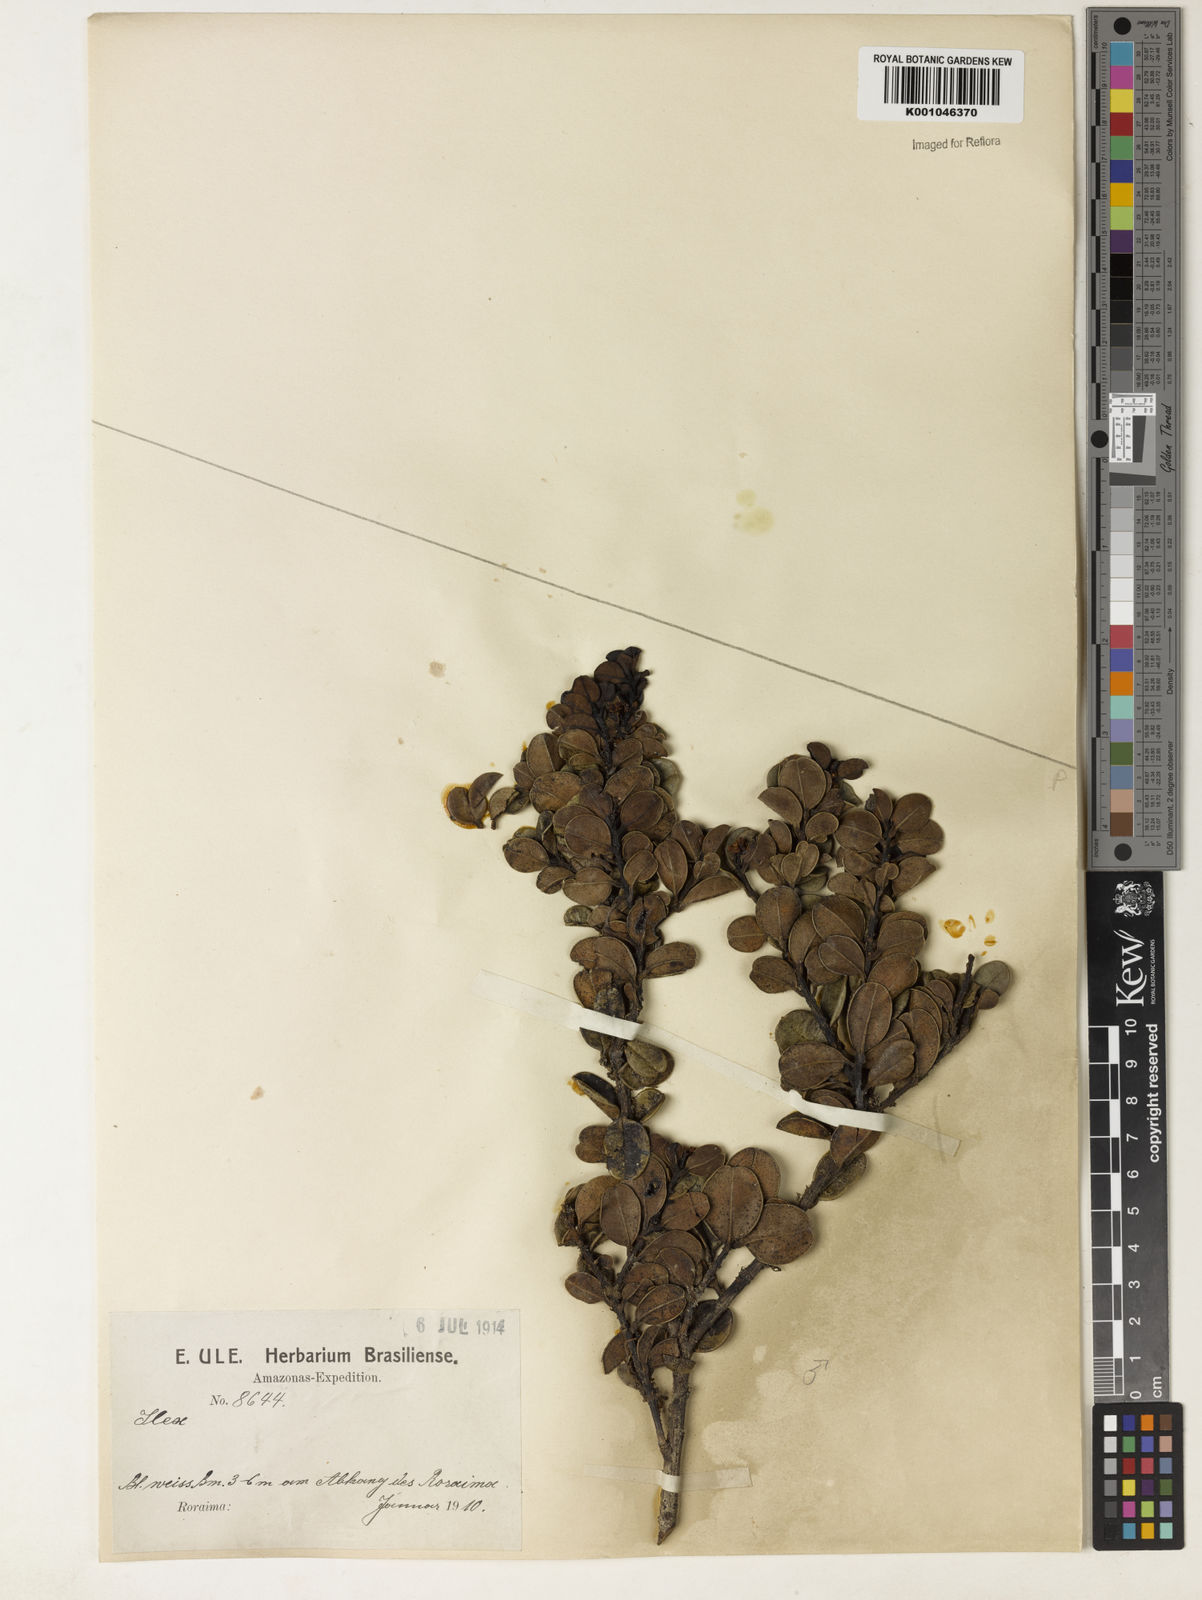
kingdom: Plantae
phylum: Tracheophyta
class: Magnoliopsida
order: Aquifoliales
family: Aquifoliaceae
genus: Ilex
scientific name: Ilex
